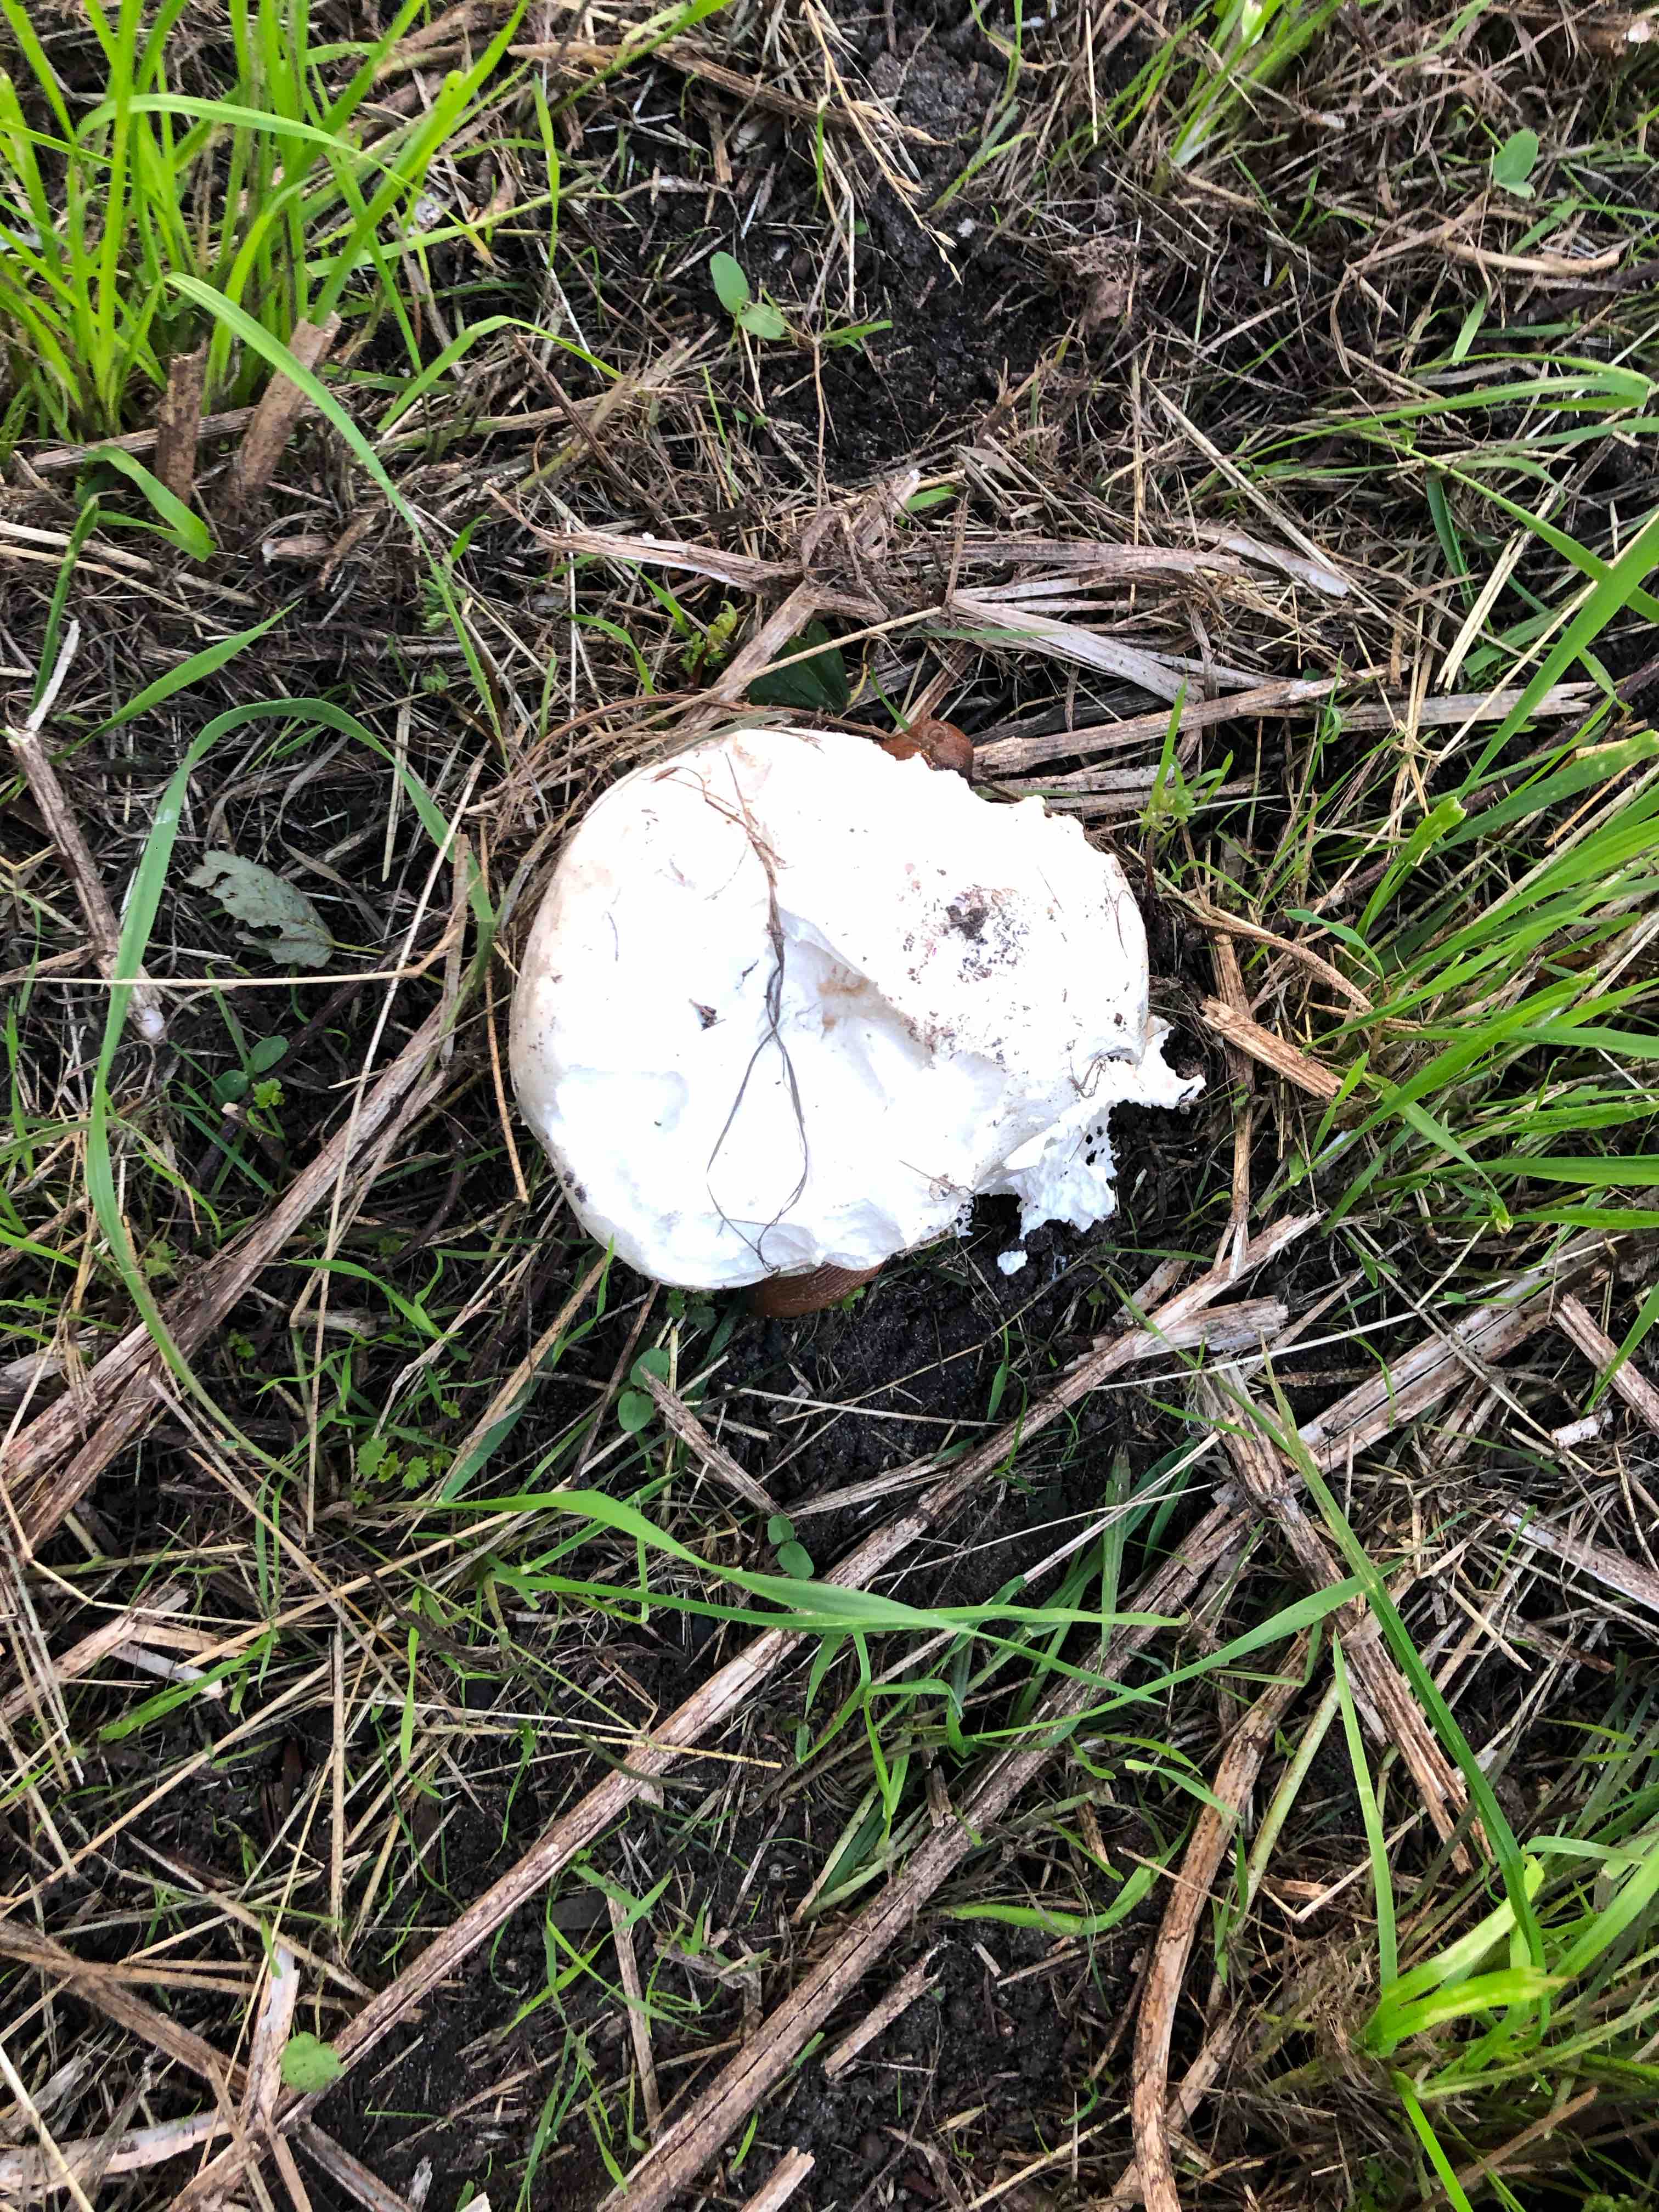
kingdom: Fungi
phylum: Basidiomycota
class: Agaricomycetes
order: Agaricales
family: Lycoperdaceae
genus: Calvatia
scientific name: Calvatia gigantea
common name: kæmpestøvbold
